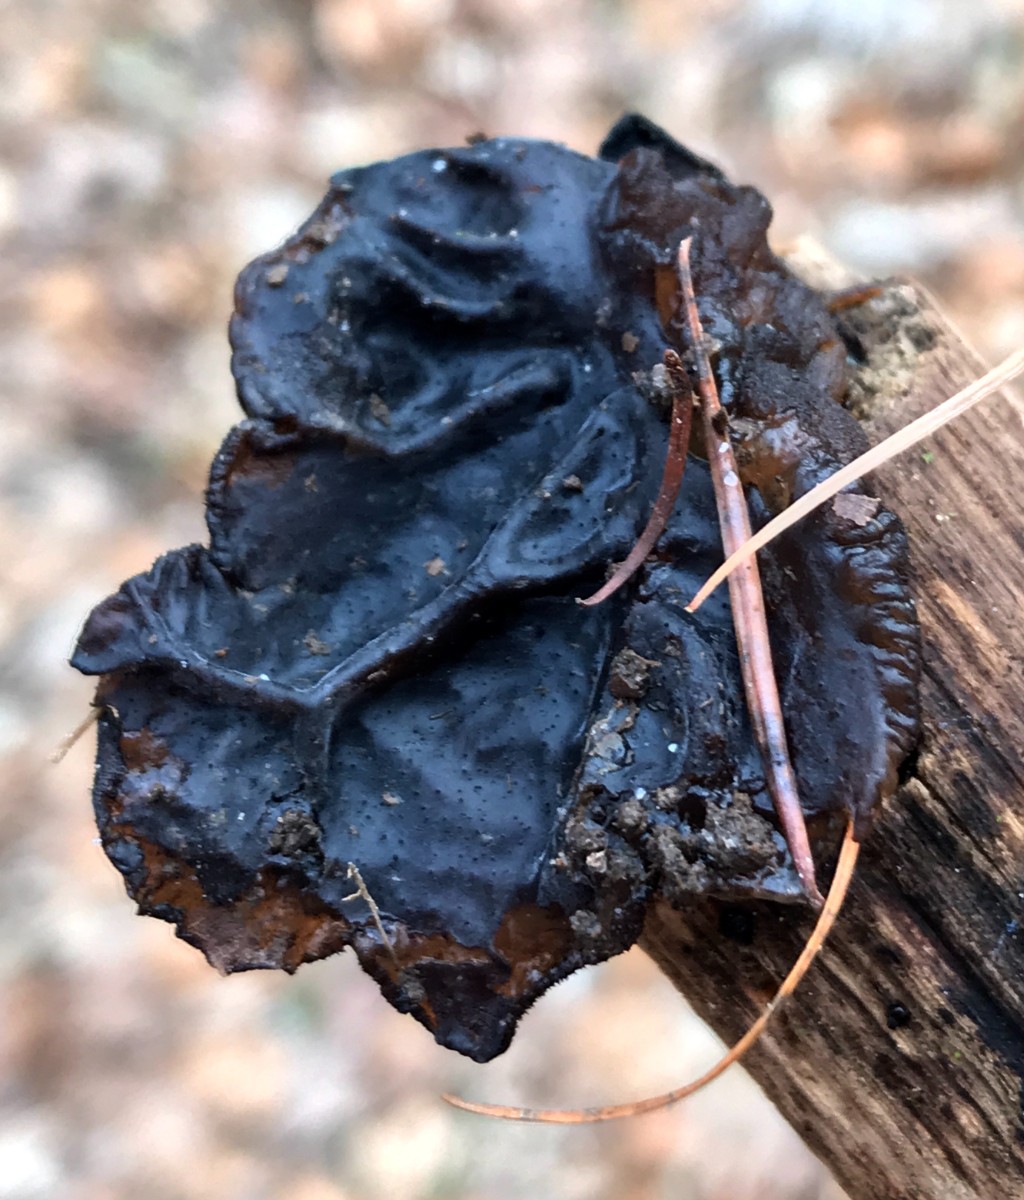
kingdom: Fungi
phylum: Basidiomycota
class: Agaricomycetes
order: Auriculariales
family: Auriculariaceae
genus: Exidia
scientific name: Exidia glandulosa
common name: ege-bævretop
